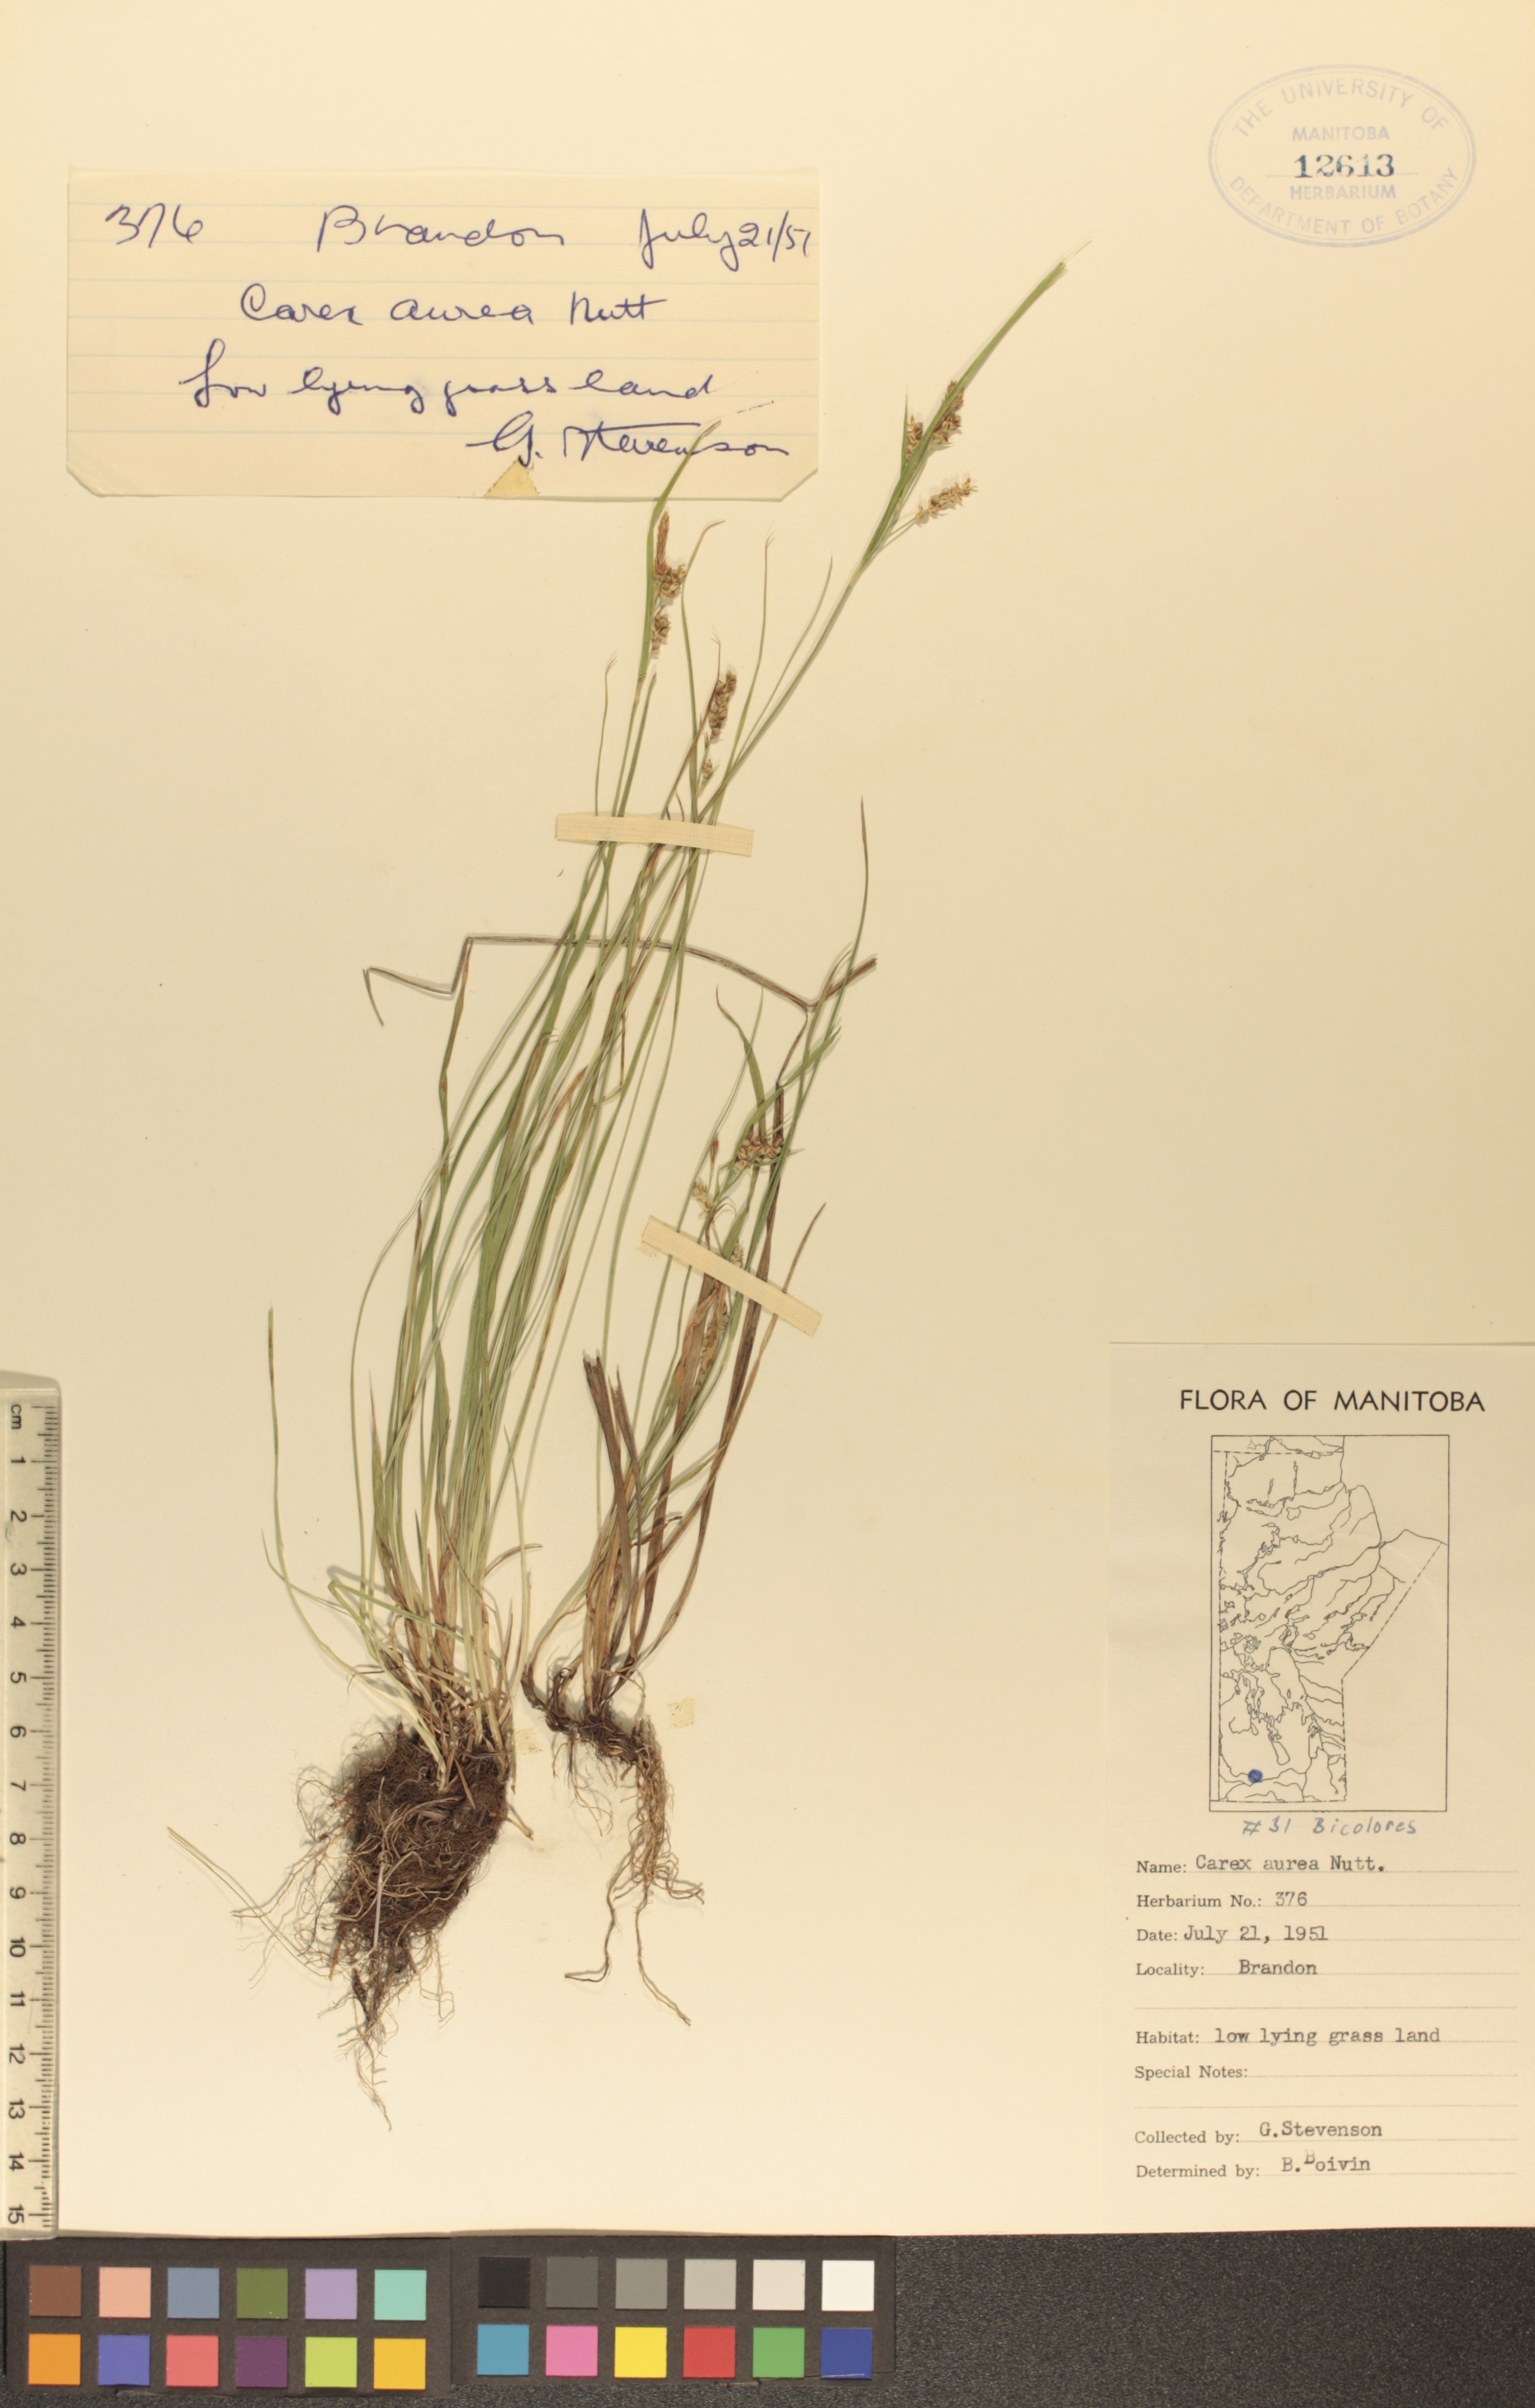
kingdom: Plantae
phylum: Tracheophyta
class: Liliopsida
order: Poales
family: Cyperaceae
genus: Carex
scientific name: Carex aurea
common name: Golden sedge
